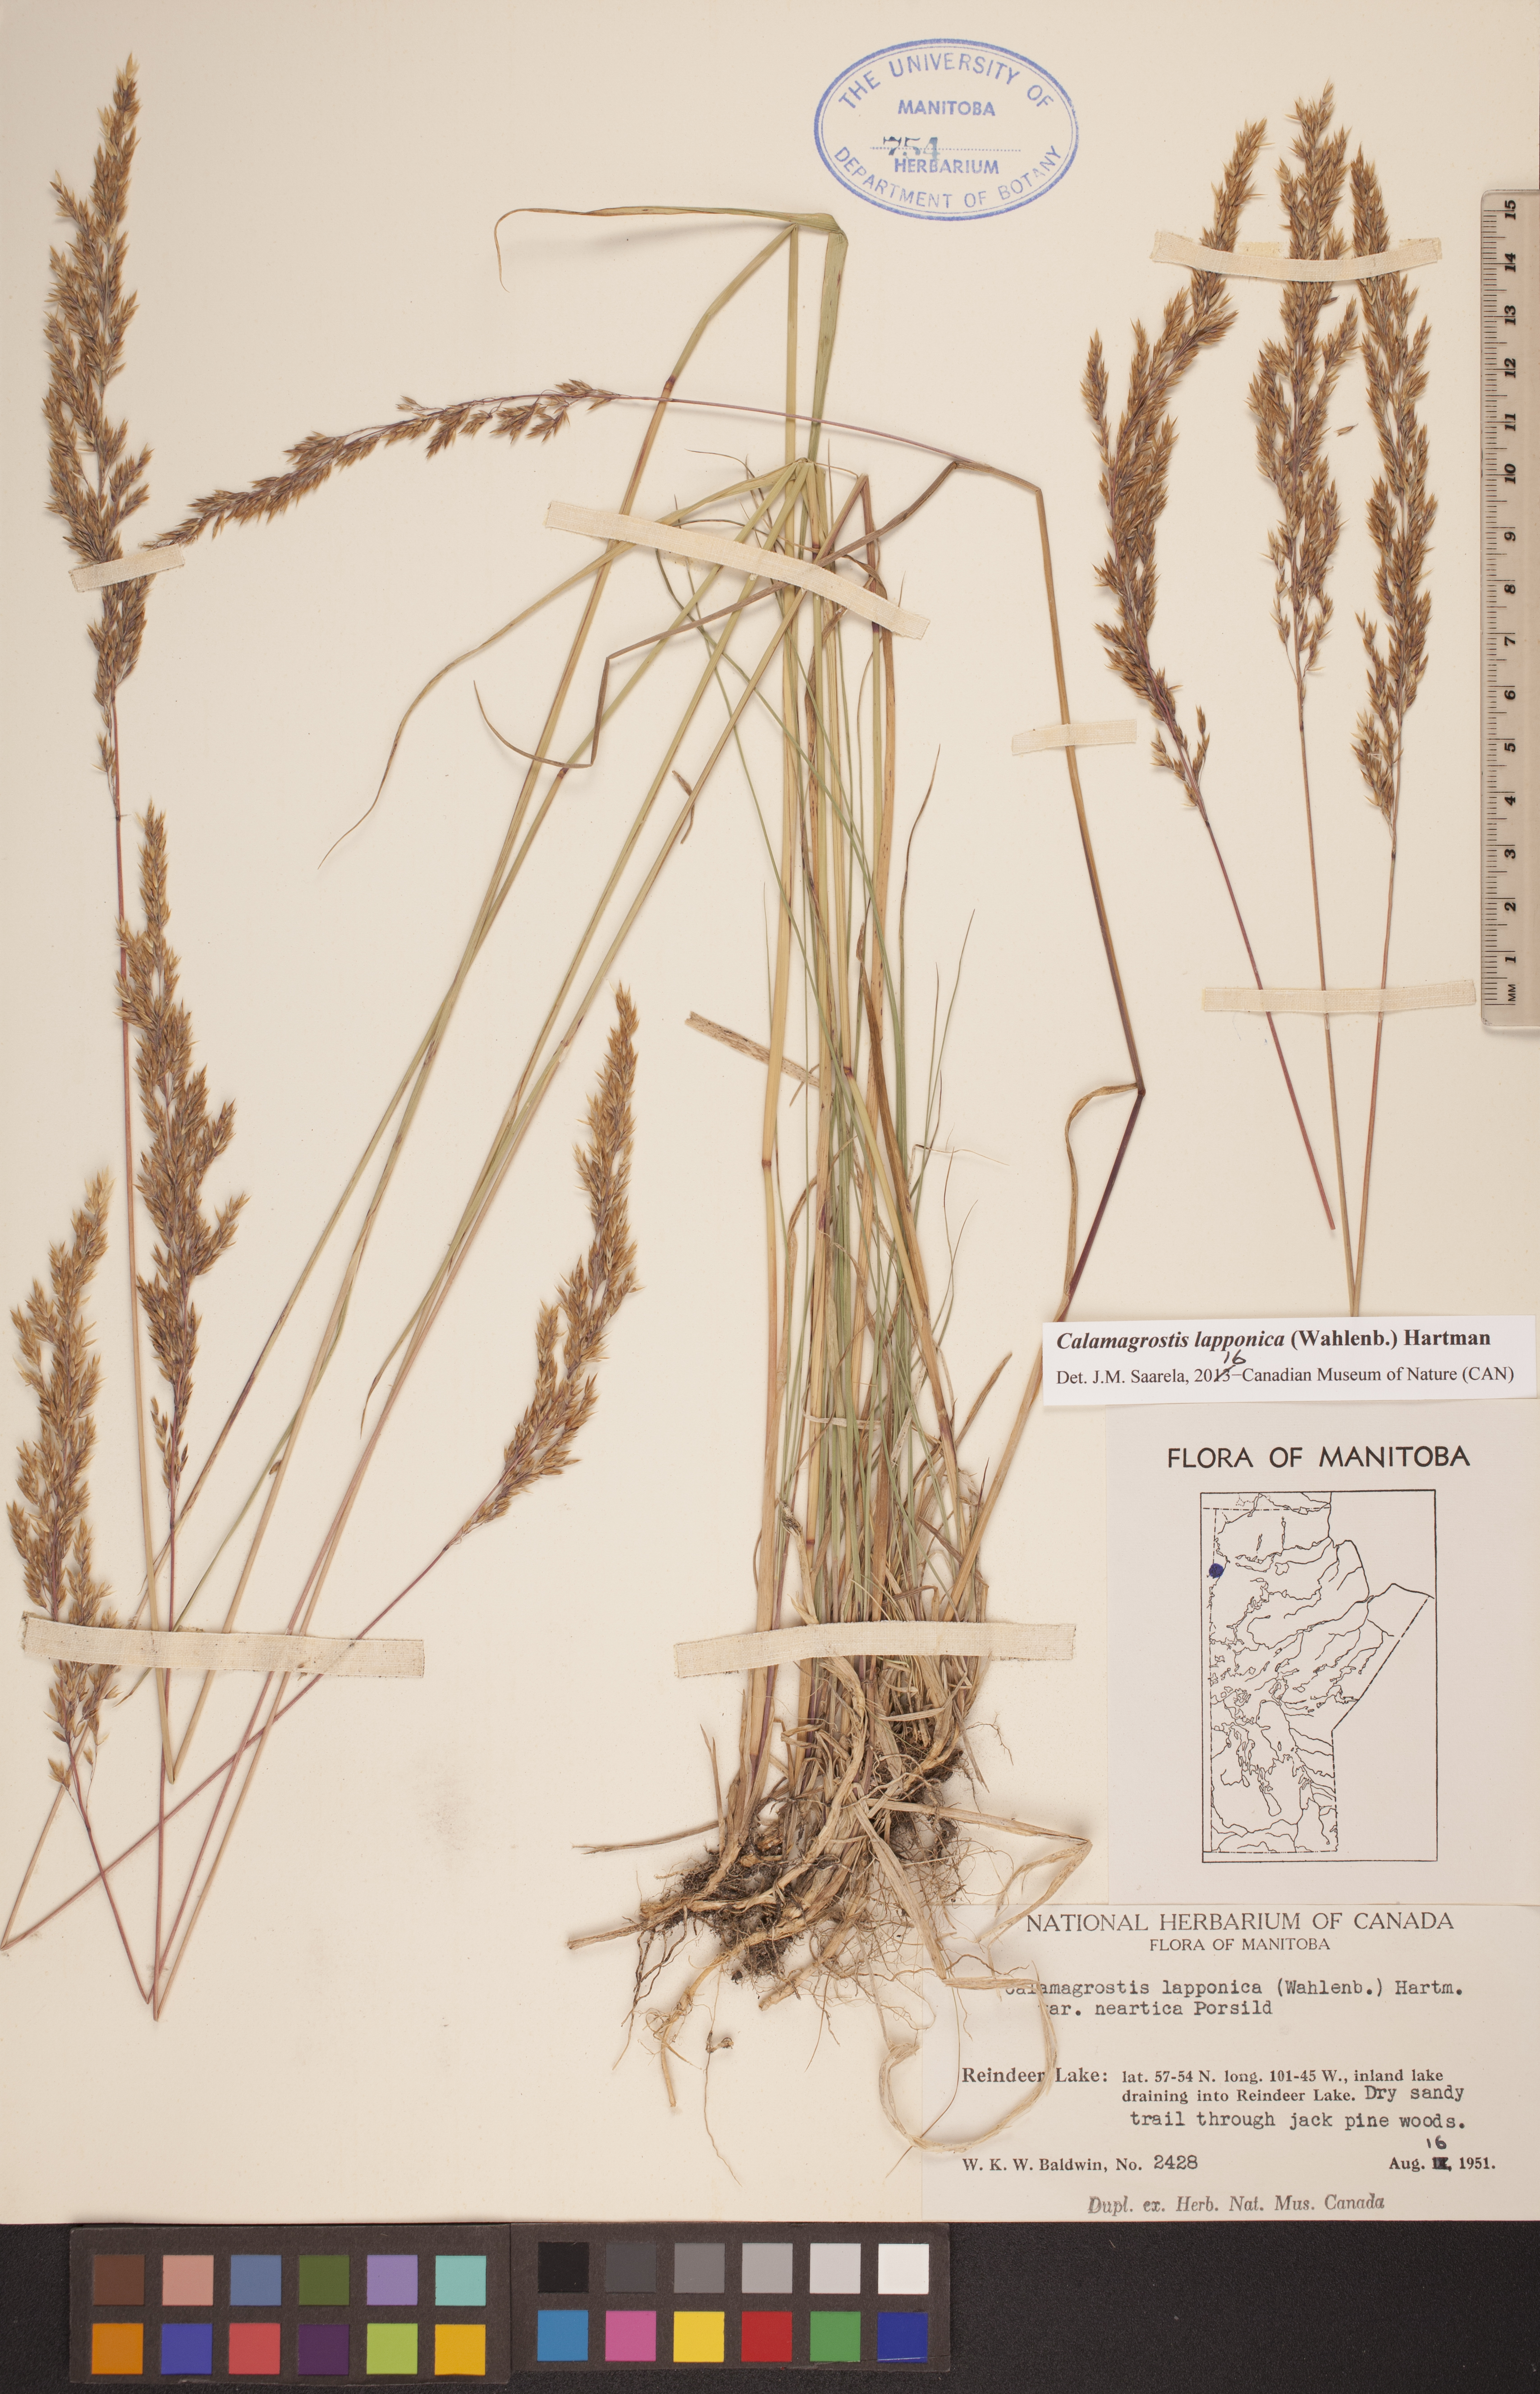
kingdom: Plantae
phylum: Tracheophyta
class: Liliopsida
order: Poales
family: Poaceae
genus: Calamagrostis
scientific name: Calamagrostis lapponica
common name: Lapland reedgrass
